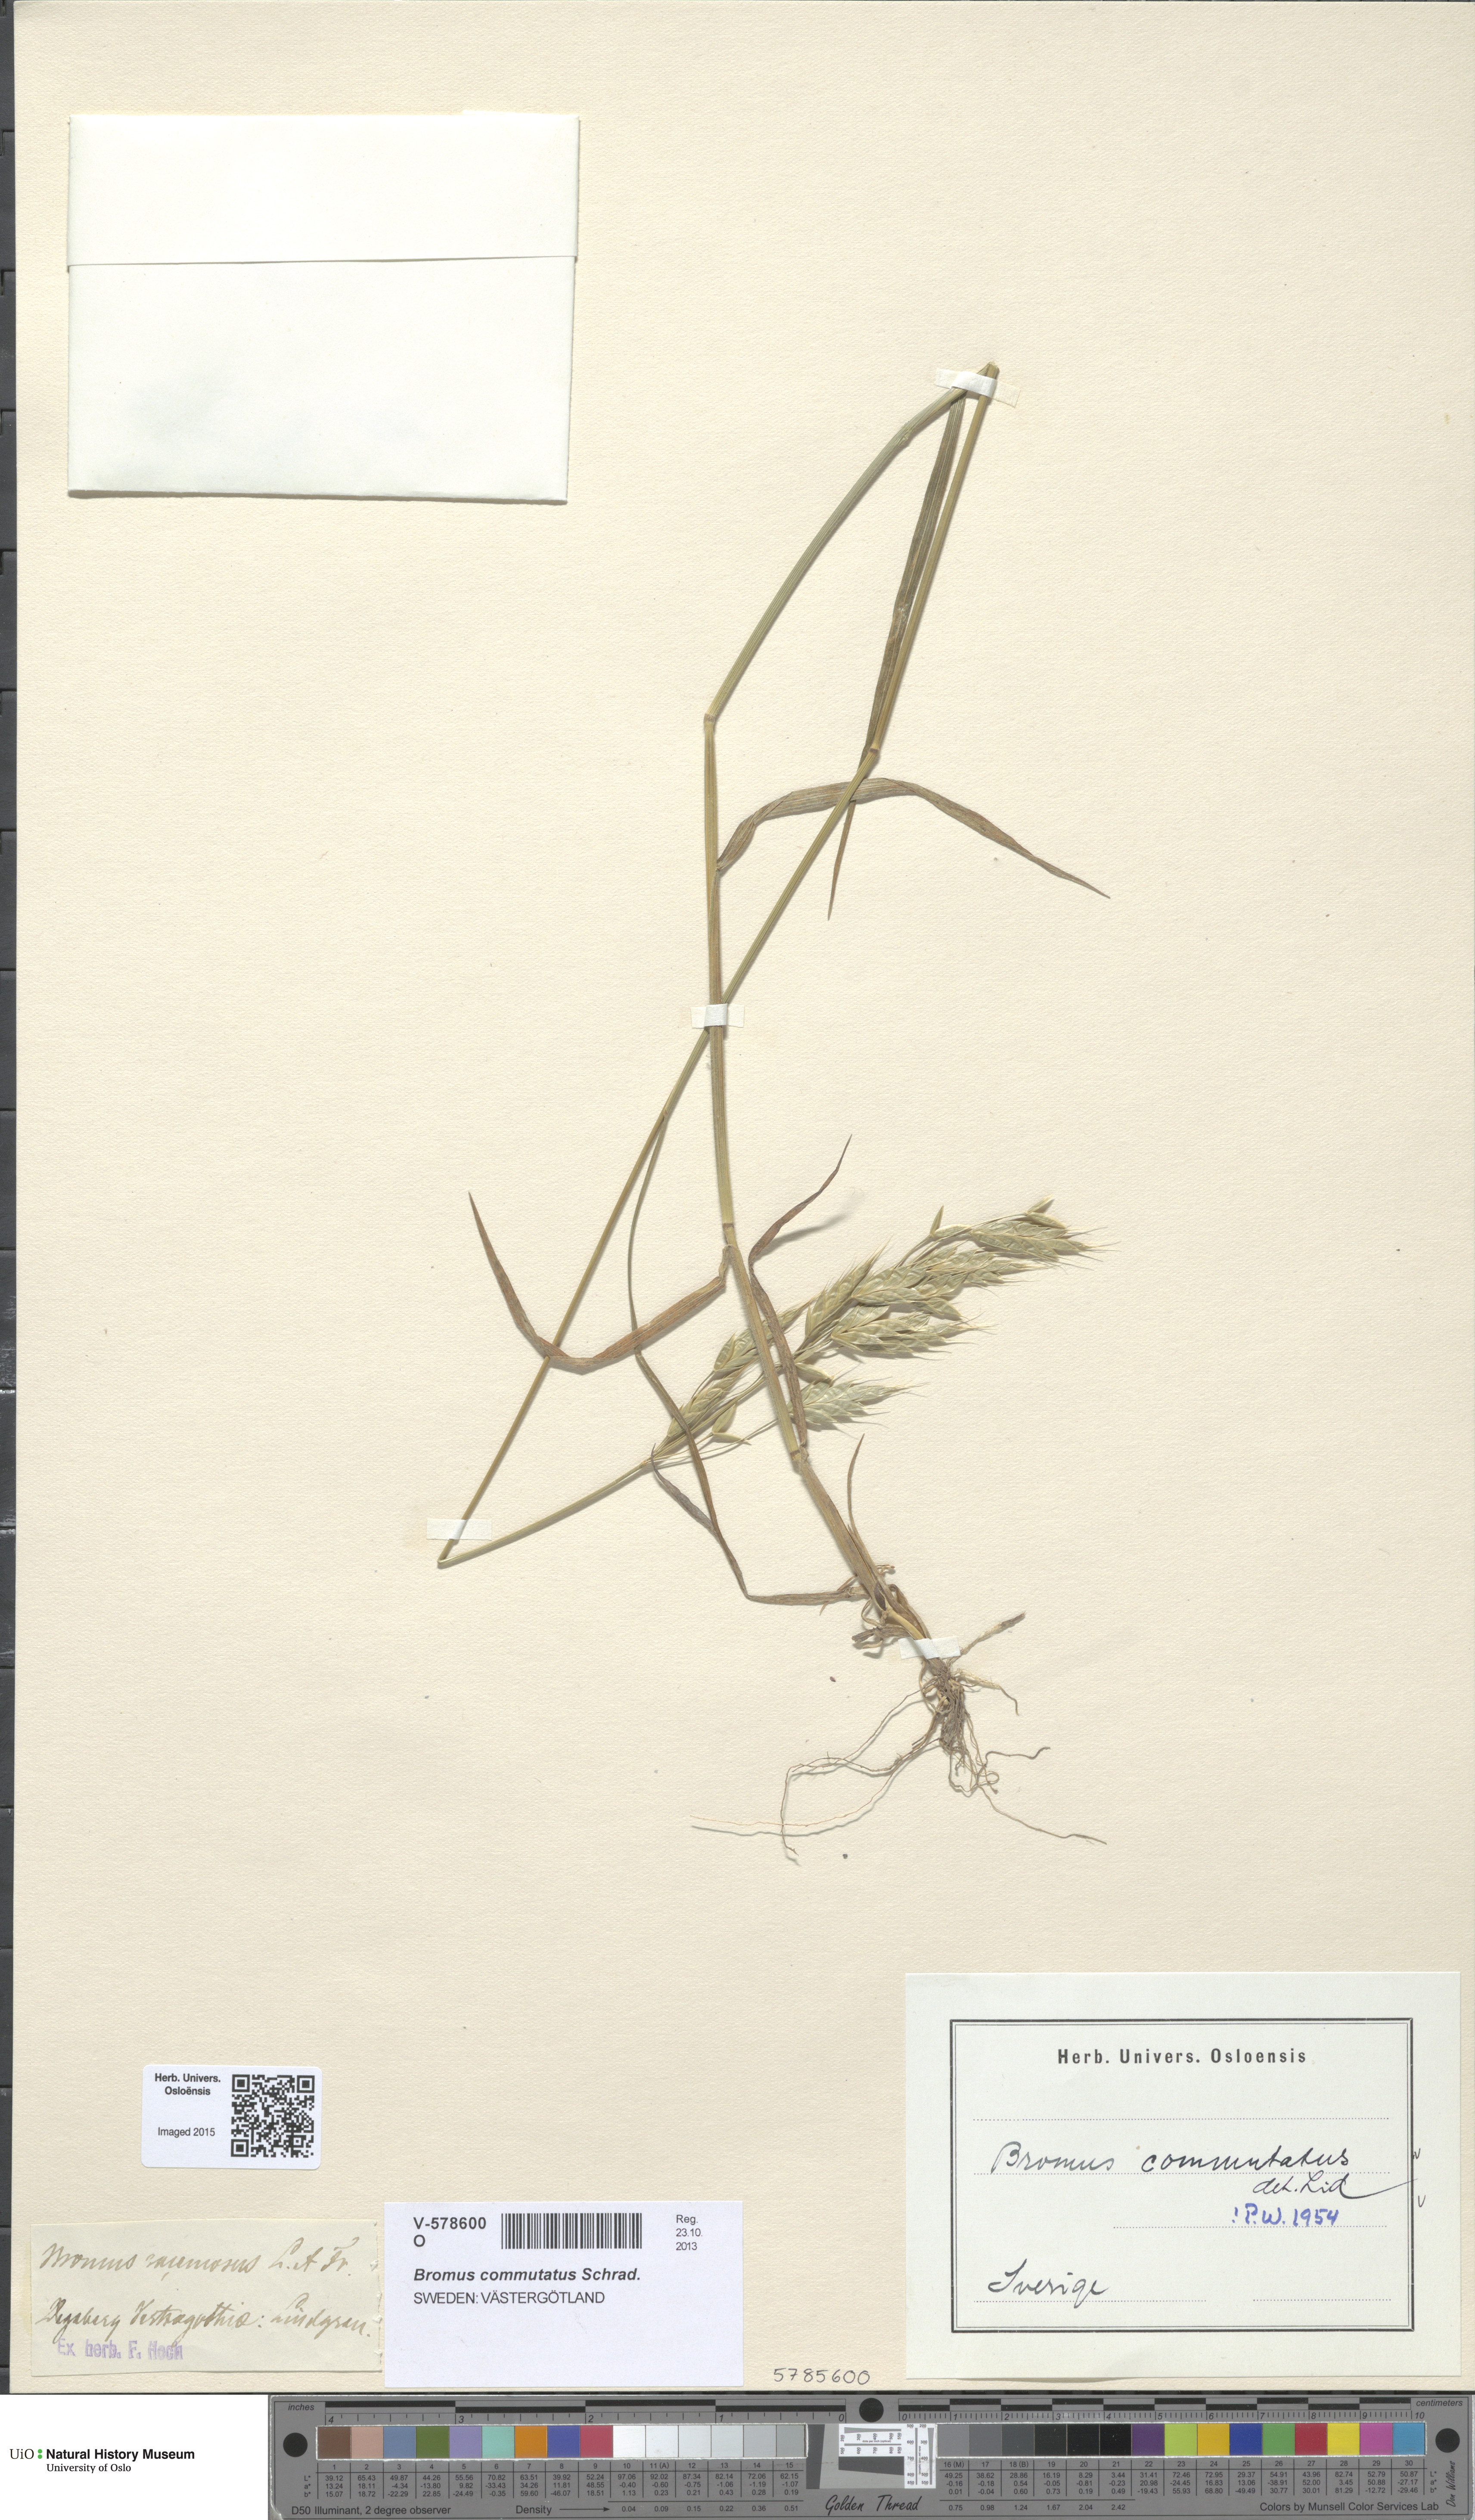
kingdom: Plantae
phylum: Tracheophyta
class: Liliopsida
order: Poales
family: Poaceae
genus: Bromus
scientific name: Bromus commutatus
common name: Meadow brome
